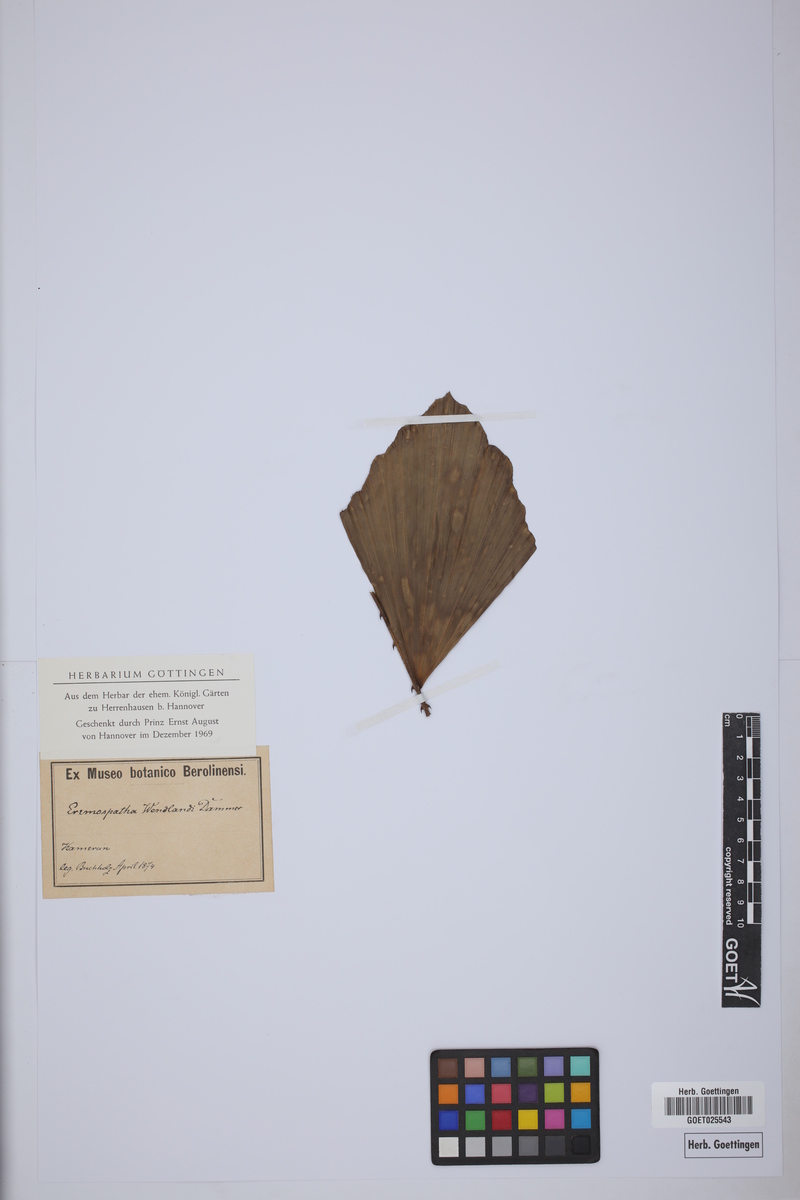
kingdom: Plantae
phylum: Tracheophyta
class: Liliopsida
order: Arecales
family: Arecaceae
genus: Eremospatha
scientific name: Eremospatha
